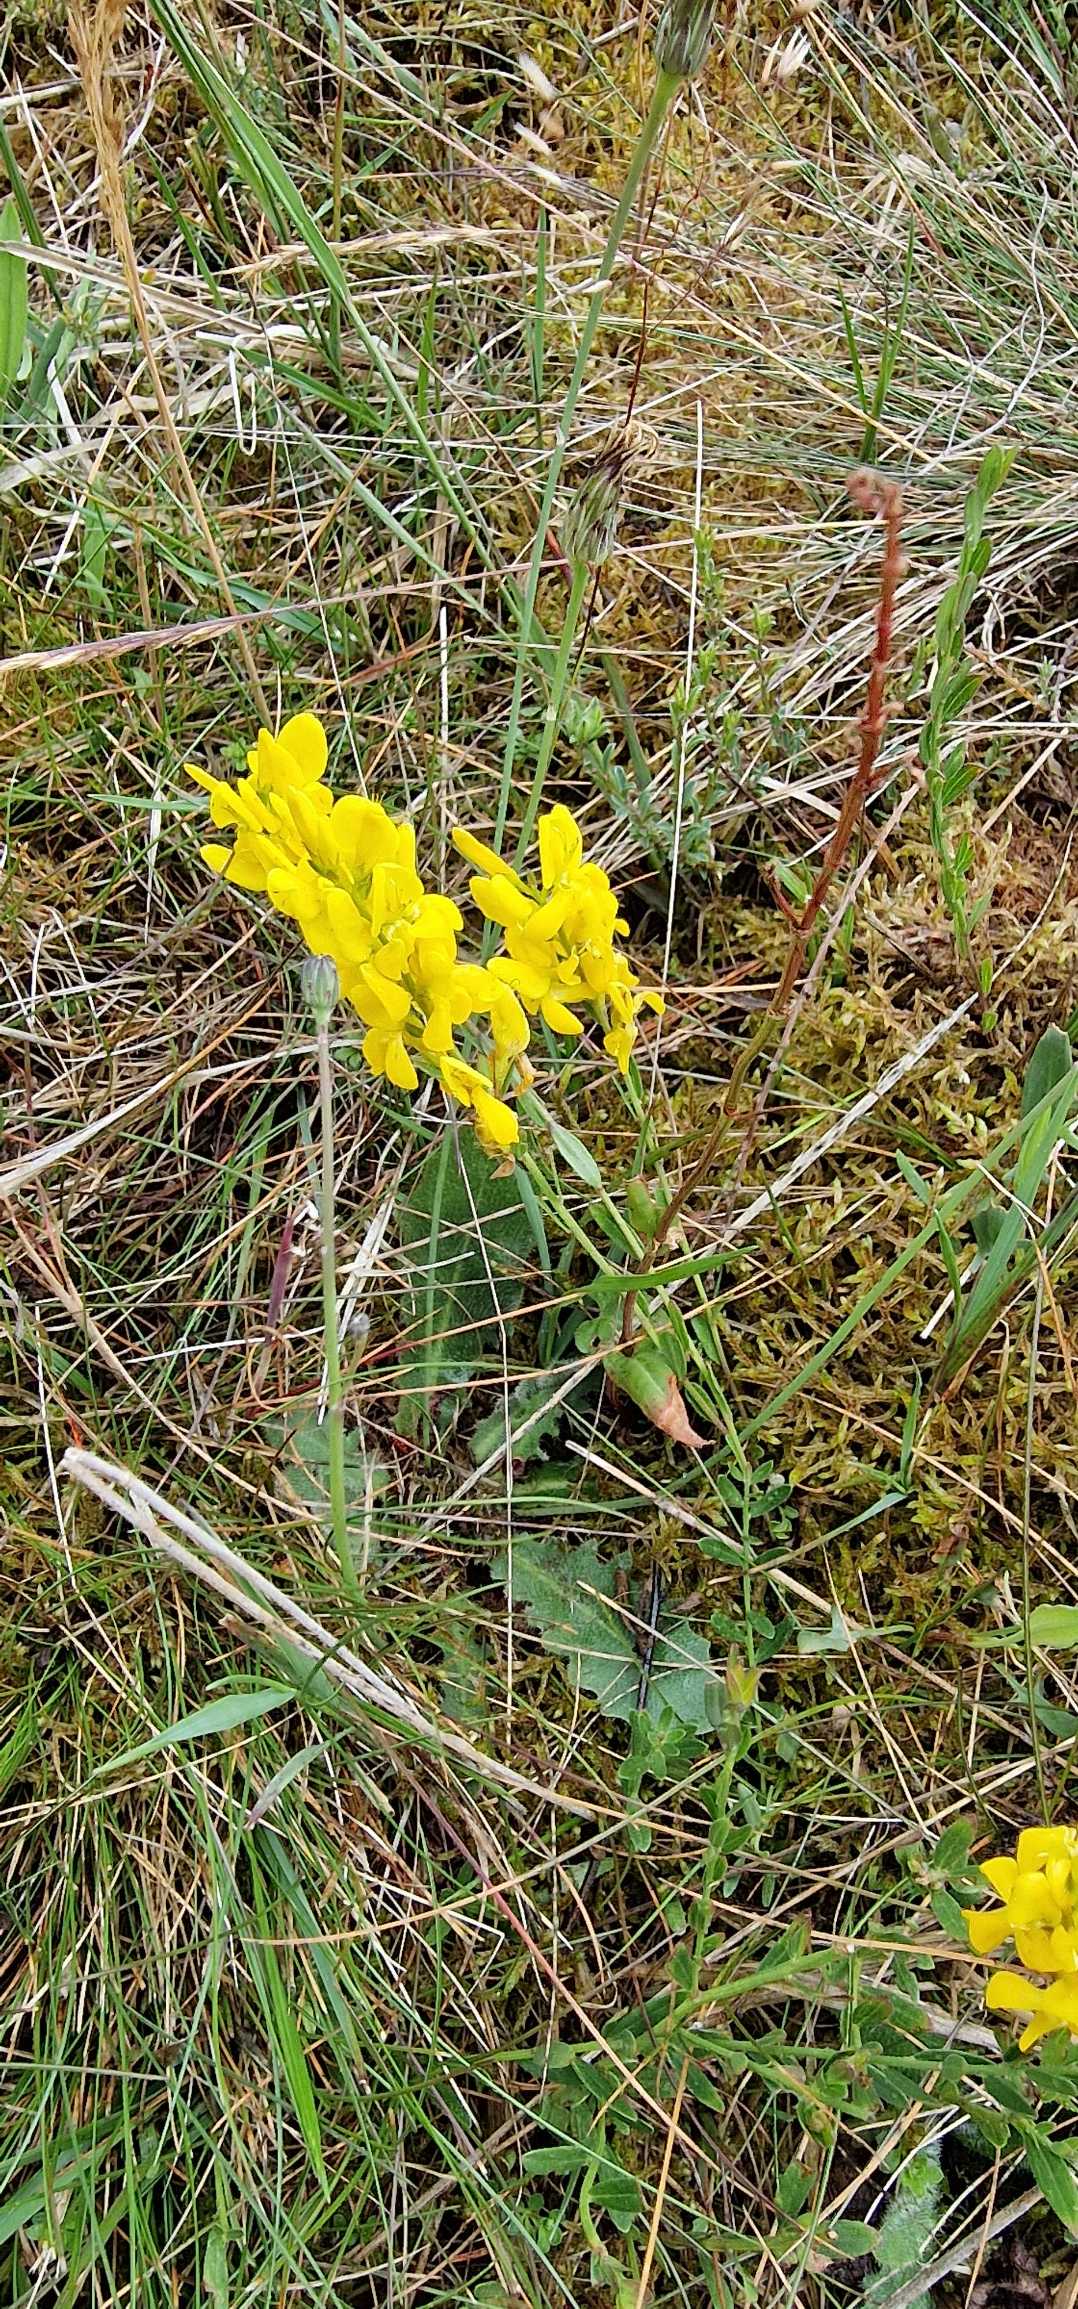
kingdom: Plantae
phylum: Tracheophyta
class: Magnoliopsida
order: Fabales
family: Fabaceae
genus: Genista
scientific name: Genista tinctoria
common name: Farve-visse
